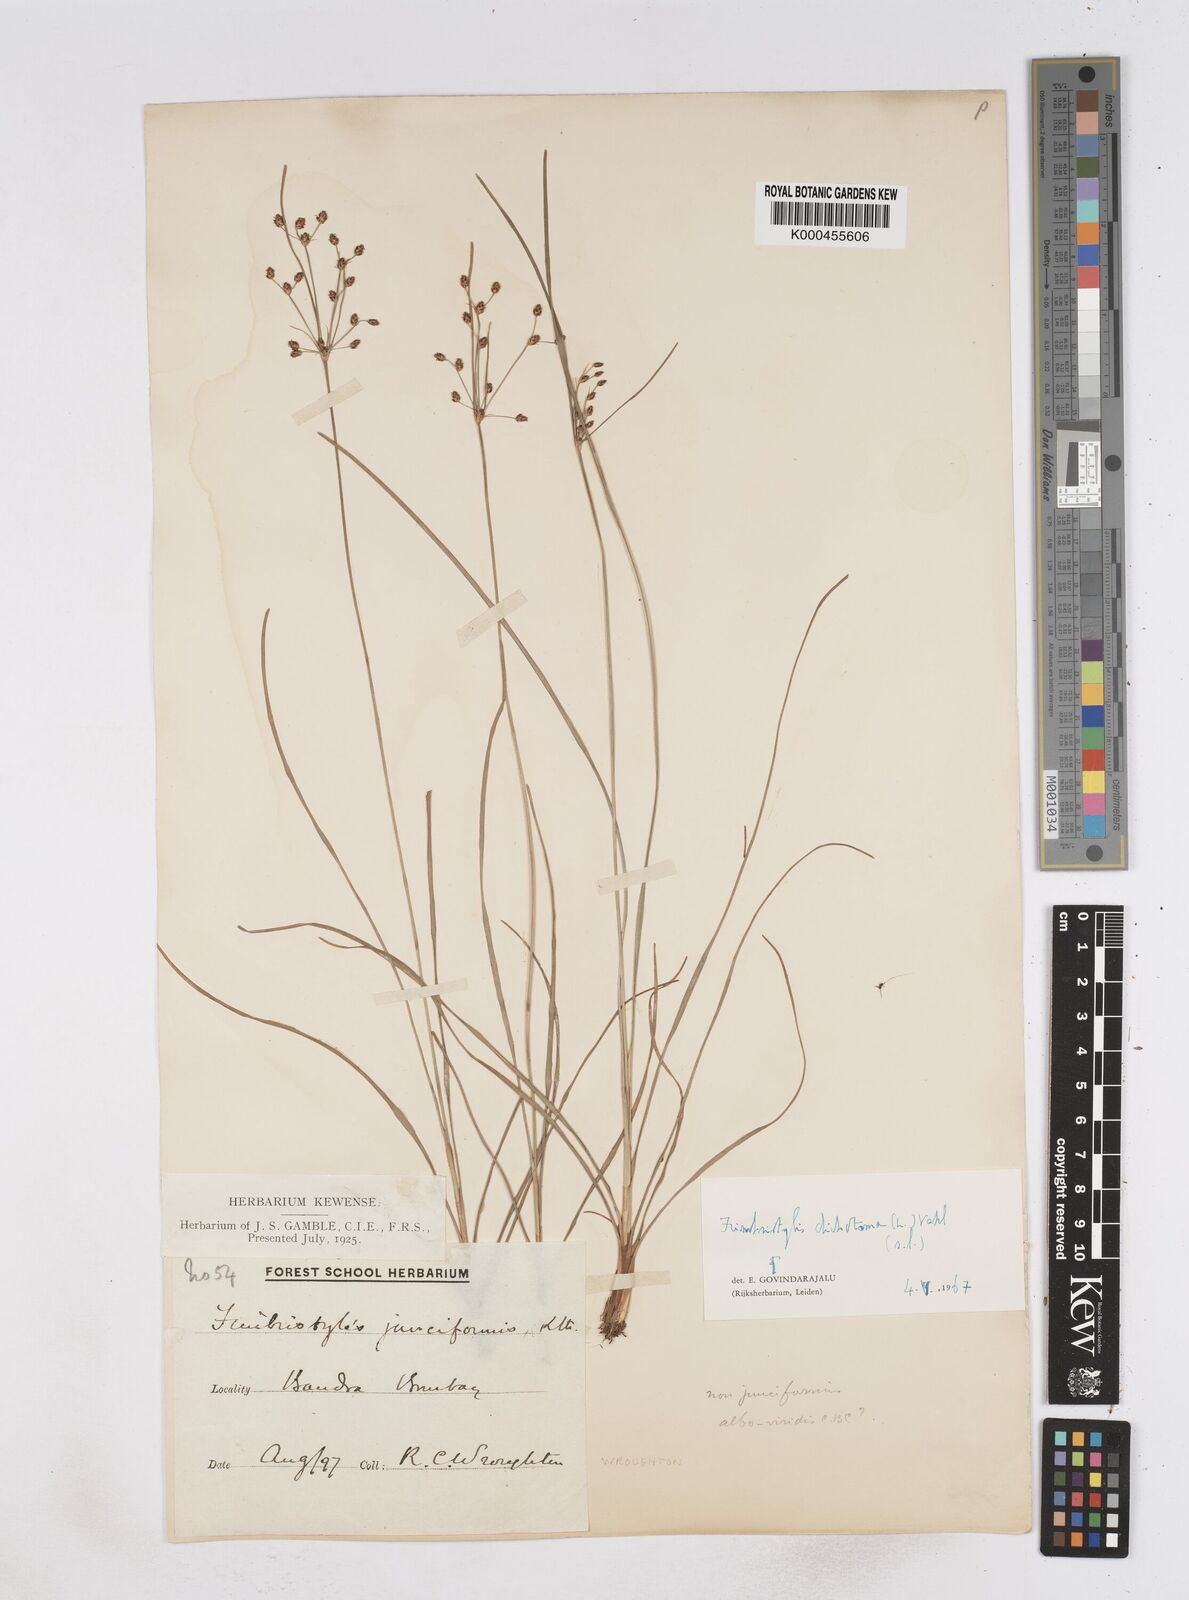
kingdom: Plantae
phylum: Tracheophyta
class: Liliopsida
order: Poales
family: Cyperaceae
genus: Fimbristylis
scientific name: Fimbristylis dichotoma
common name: Forked fimbry
